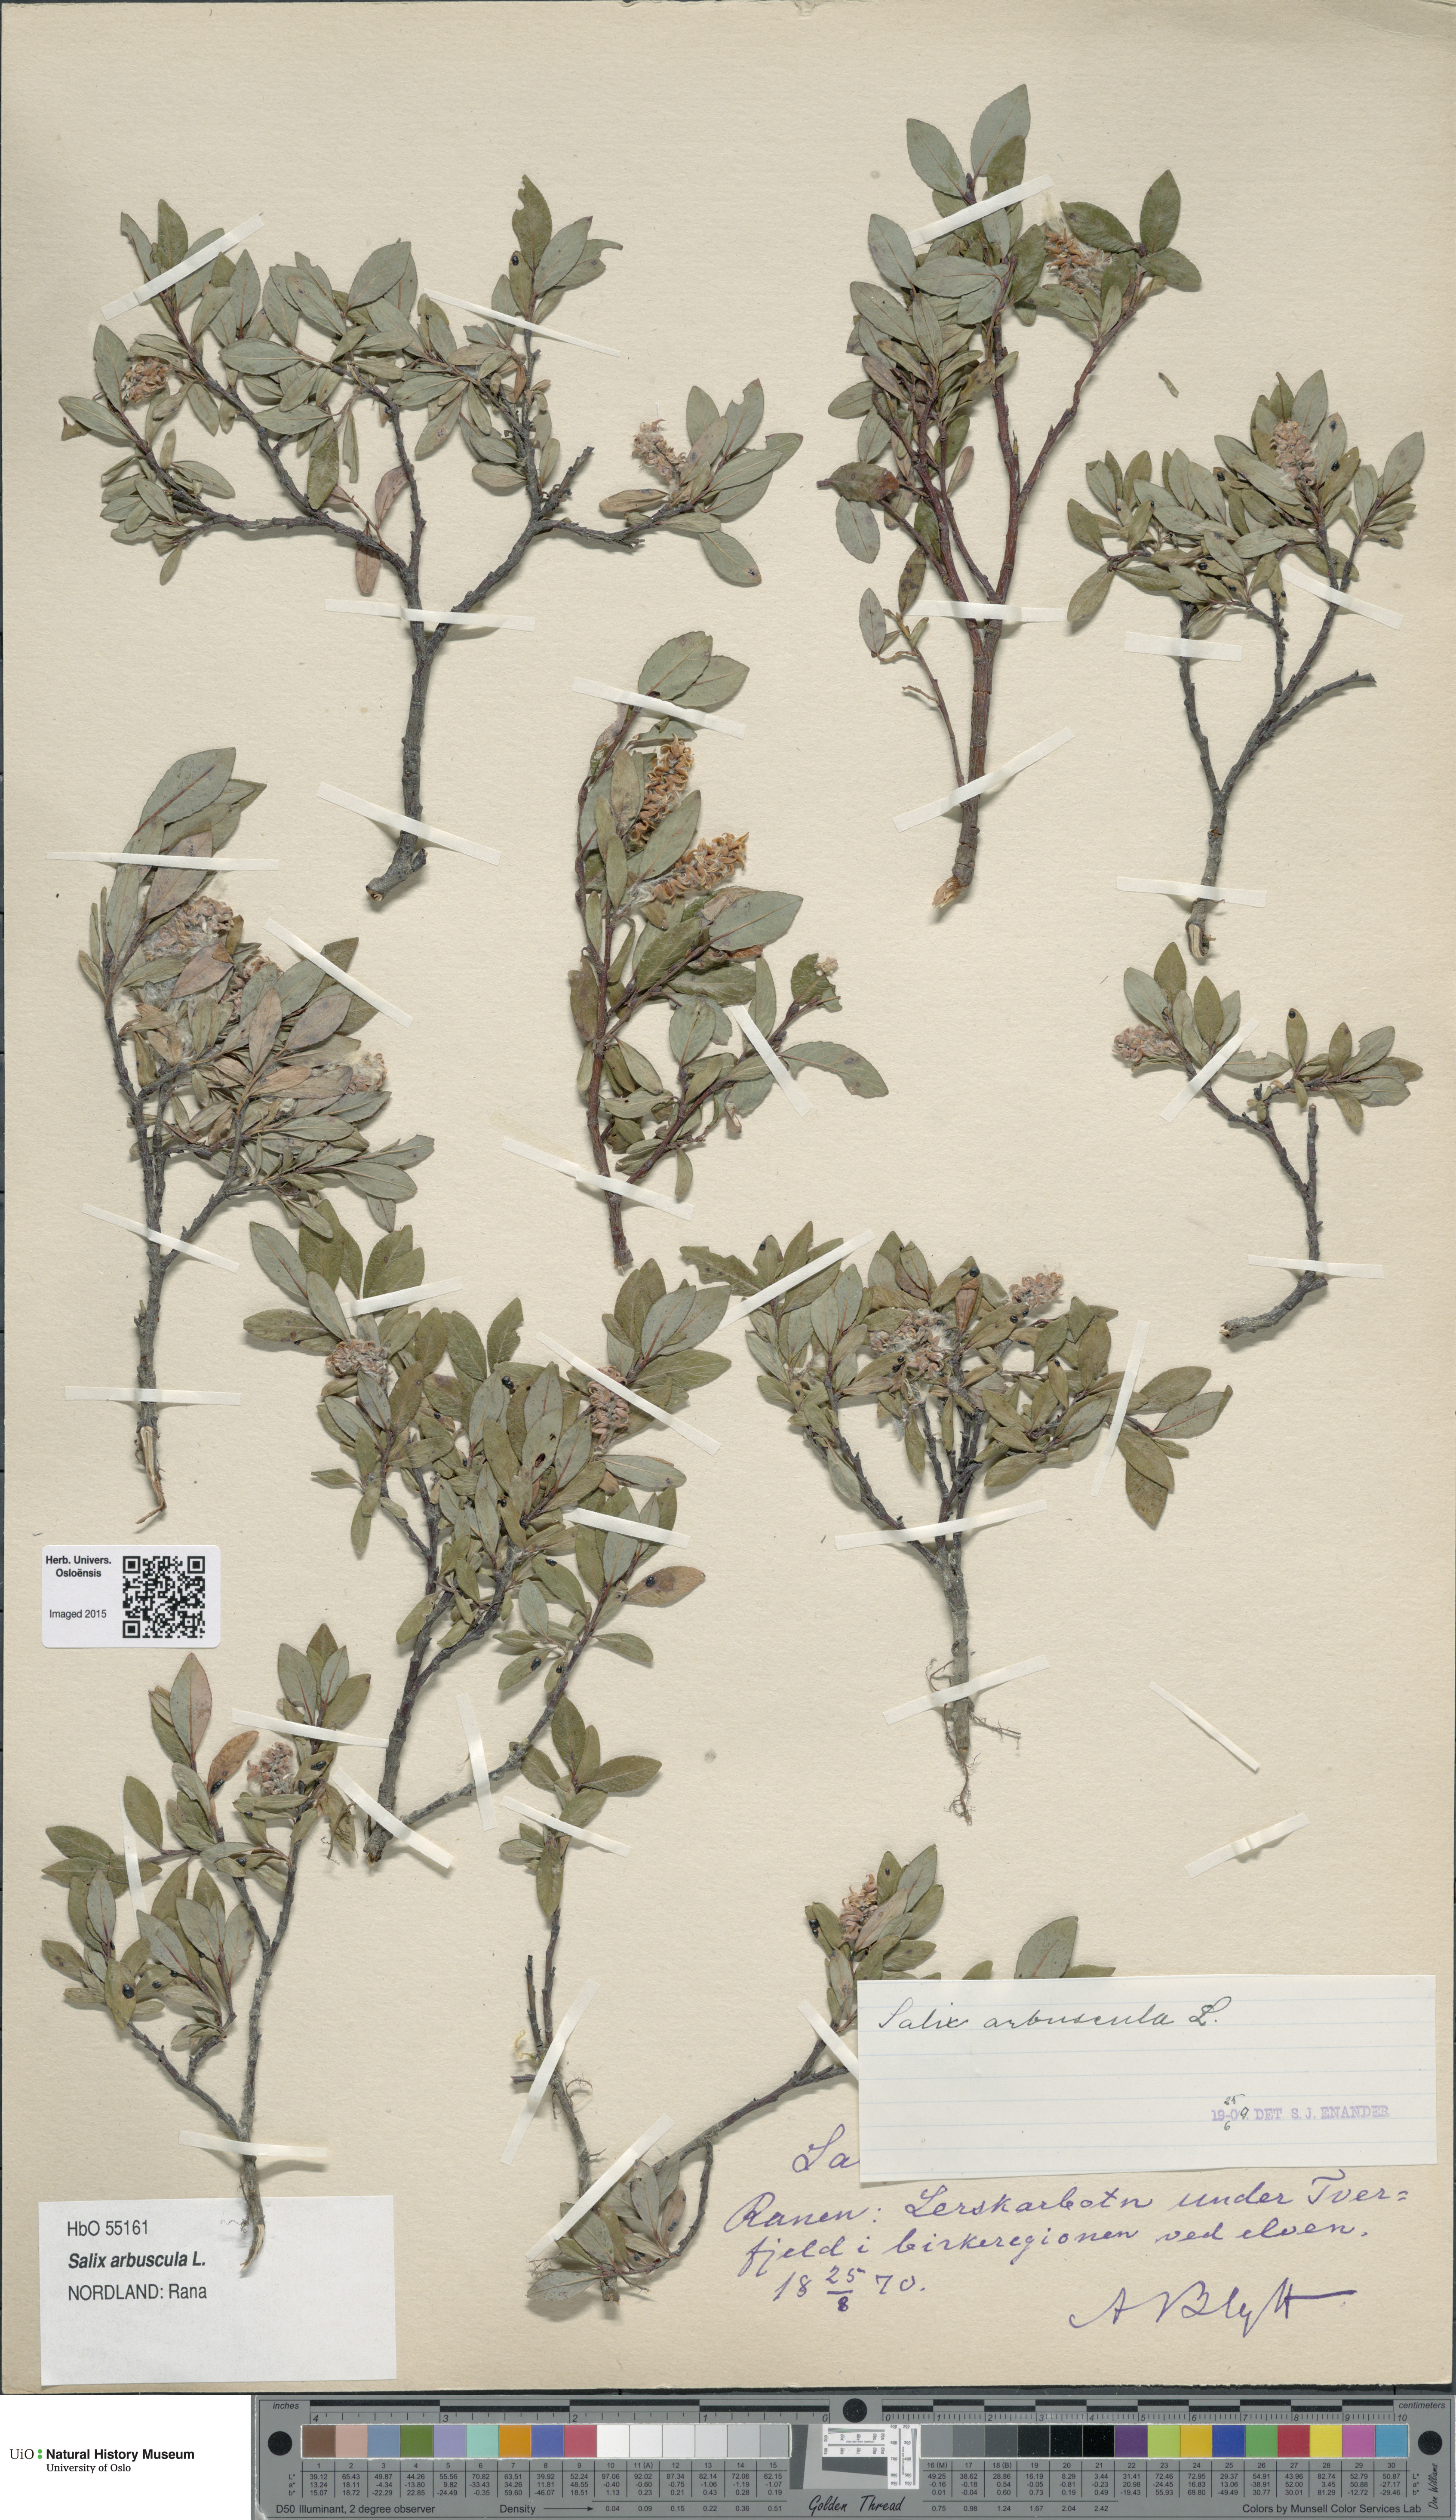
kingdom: Plantae
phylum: Tracheophyta
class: Magnoliopsida
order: Malpighiales
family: Salicaceae
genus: Salix
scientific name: Salix arbuscula
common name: Mountain willow
